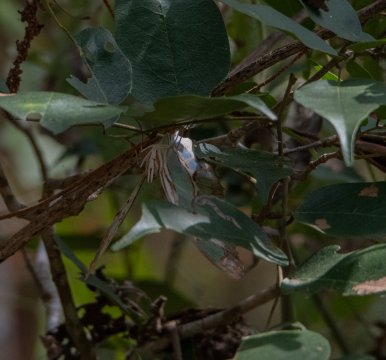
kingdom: Animalia
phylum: Arthropoda
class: Insecta
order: Lepidoptera
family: Nymphalidae
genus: Siproeta
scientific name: Siproeta stelenes
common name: Malachite
